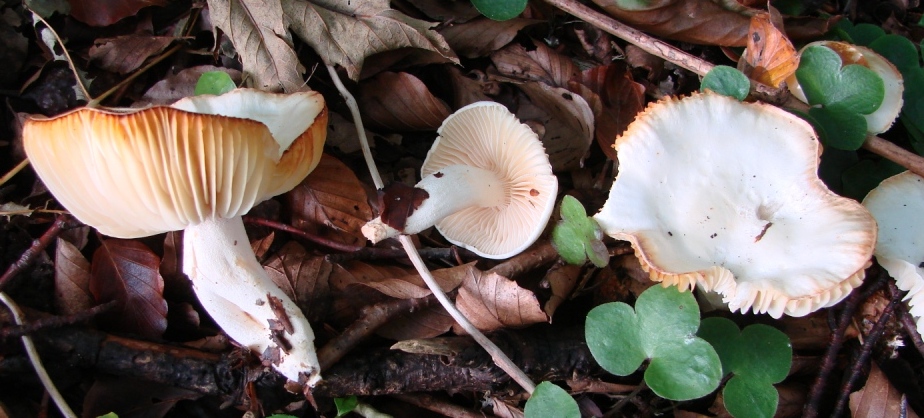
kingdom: Fungi
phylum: Basidiomycota
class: Agaricomycetes
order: Agaricales
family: Hygrophoraceae
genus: Hygrophorus
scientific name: Hygrophorus discoxanthus
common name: ildelugtende sneglehat
